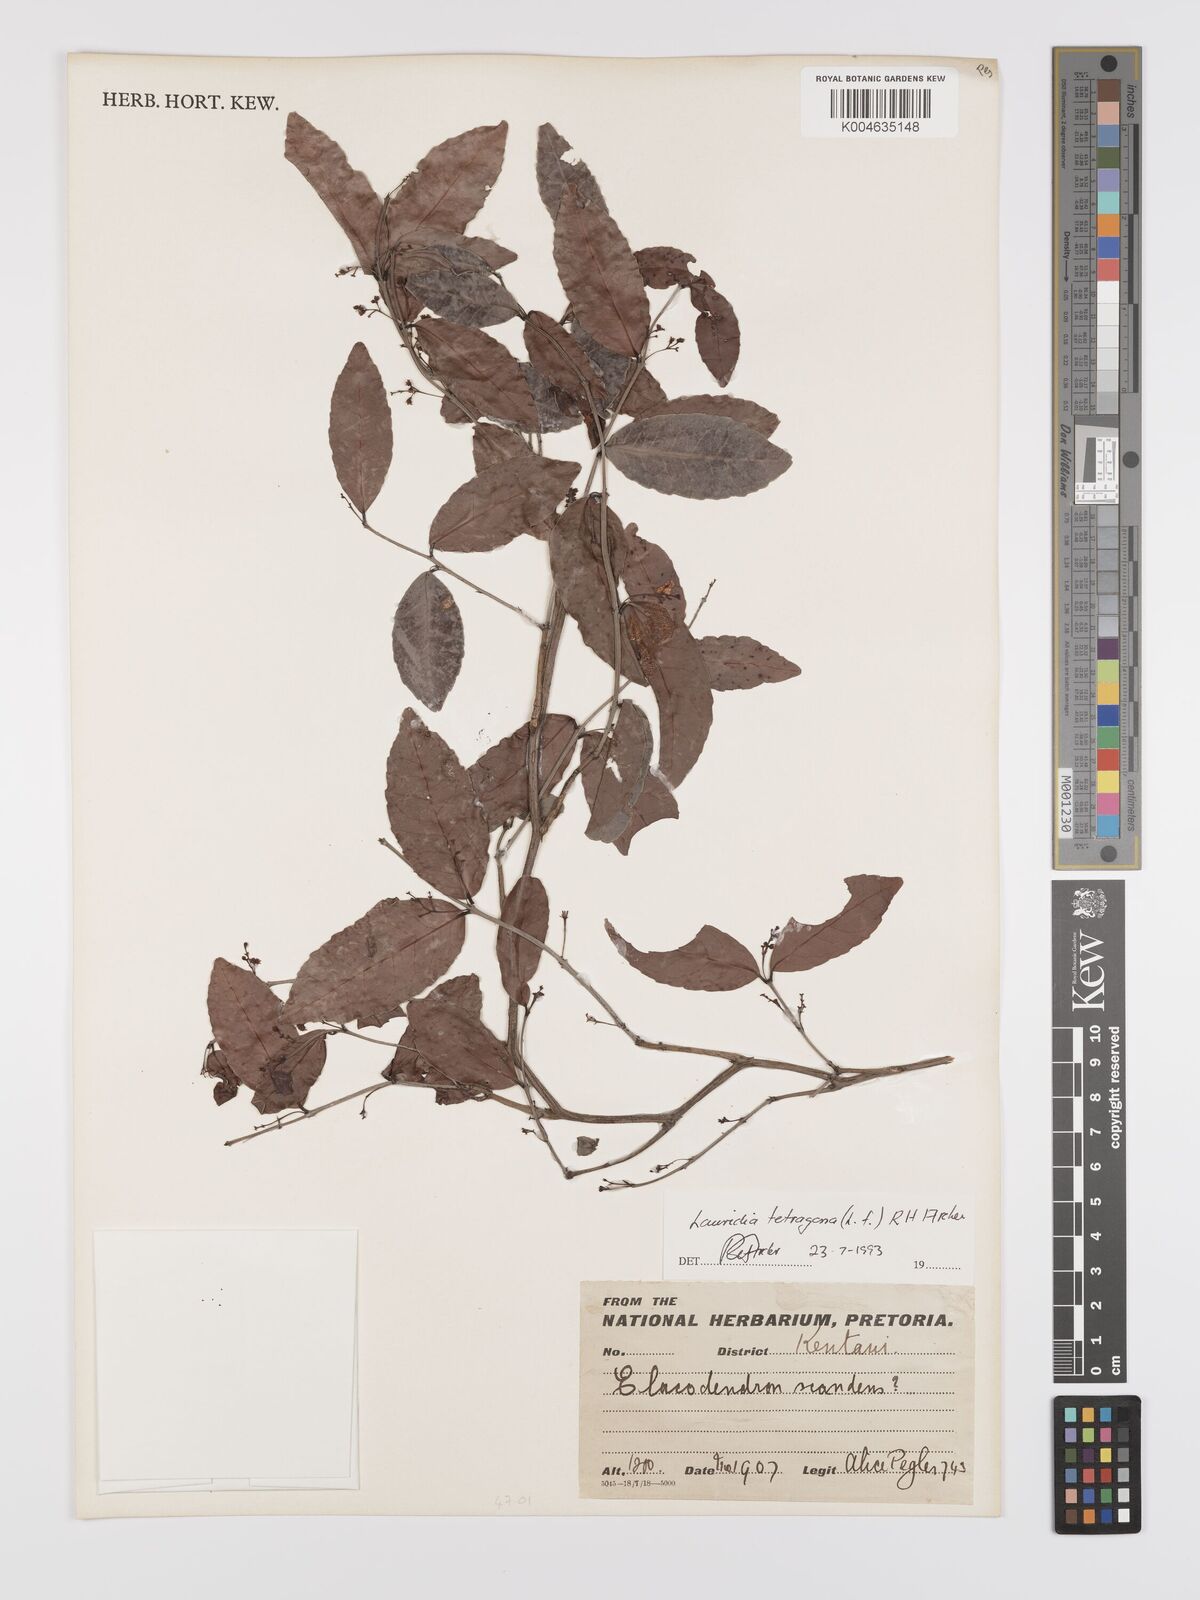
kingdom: Plantae
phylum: Tracheophyta
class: Magnoliopsida
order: Celastrales
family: Celastraceae
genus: Lauridia
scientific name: Lauridia tetragona
